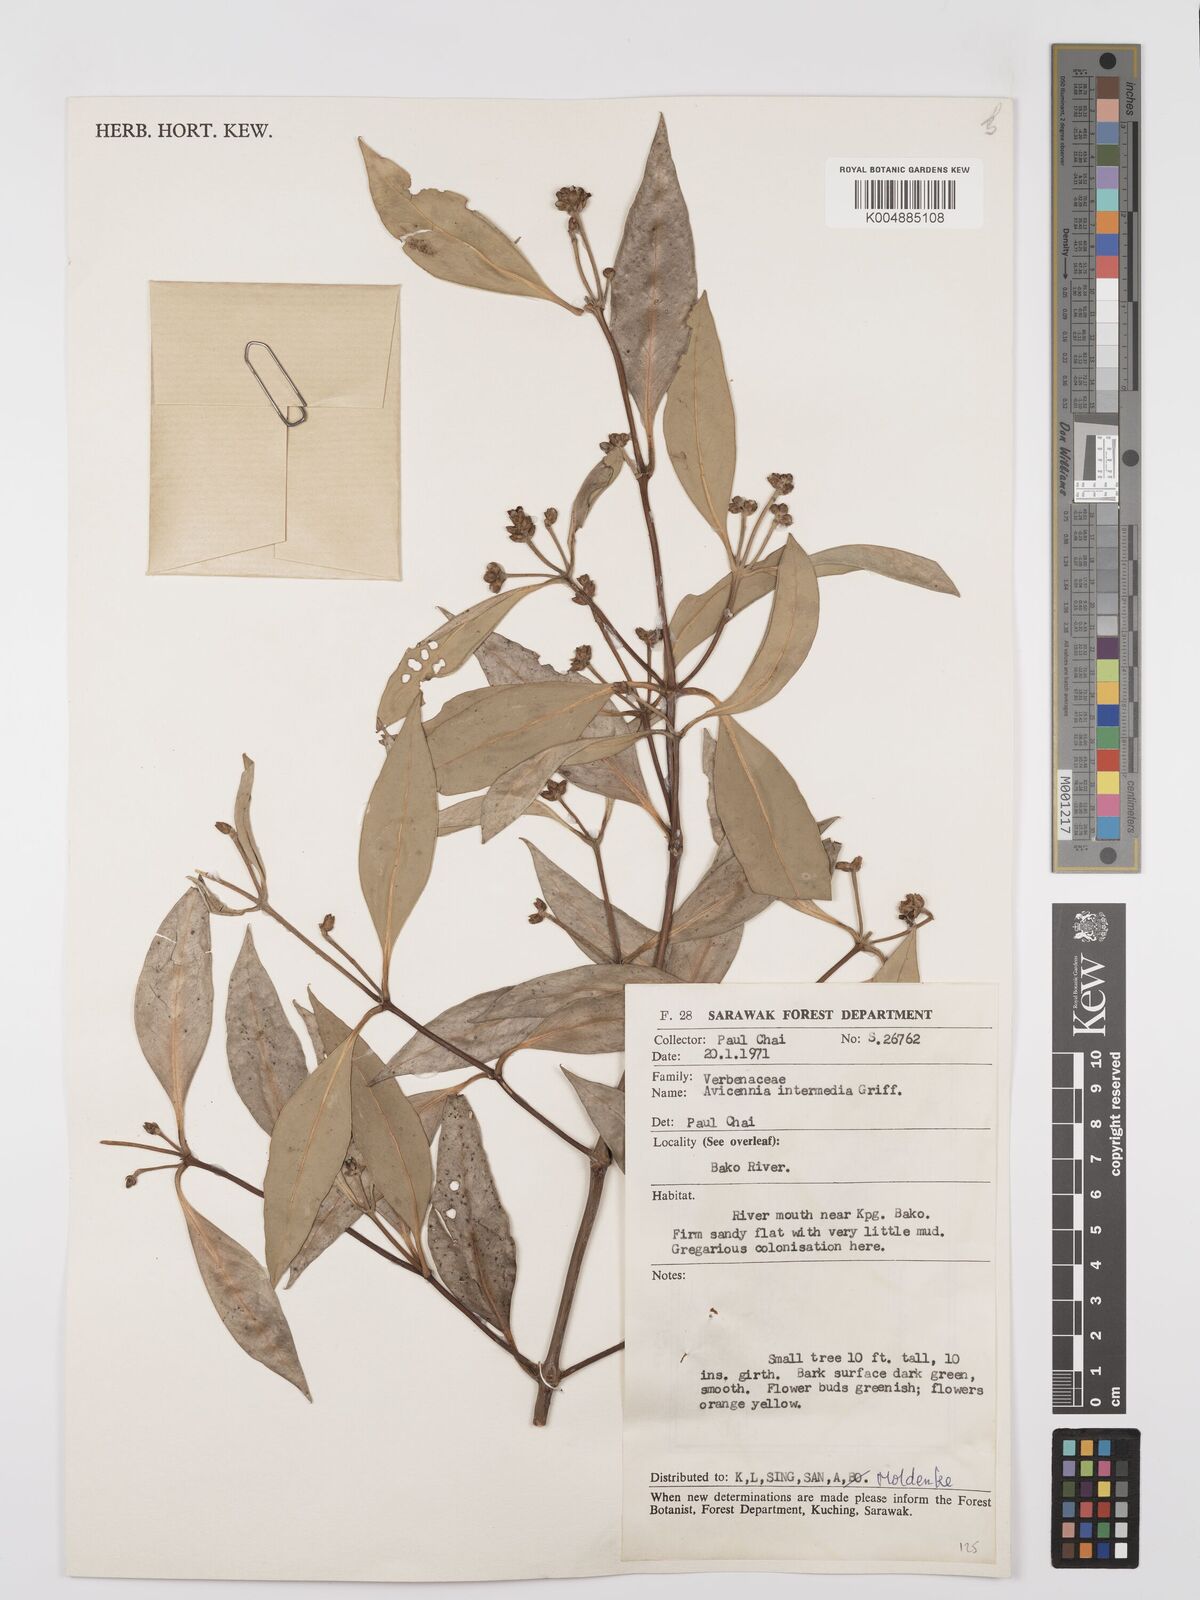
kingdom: Plantae
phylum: Tracheophyta
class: Magnoliopsida
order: Lamiales
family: Acanthaceae
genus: Avicennia
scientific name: Avicennia marina
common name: Gray mangrove
